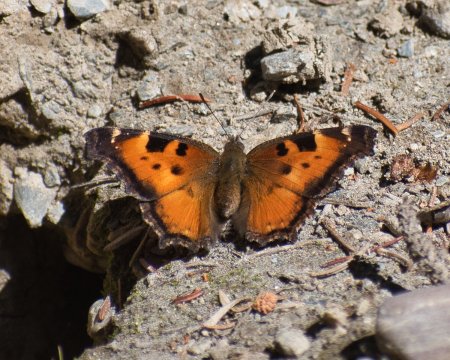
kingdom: Animalia
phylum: Arthropoda
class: Insecta
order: Lepidoptera
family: Nymphalidae
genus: Nymphalis
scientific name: Nymphalis californica
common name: California Tortoiseshell
